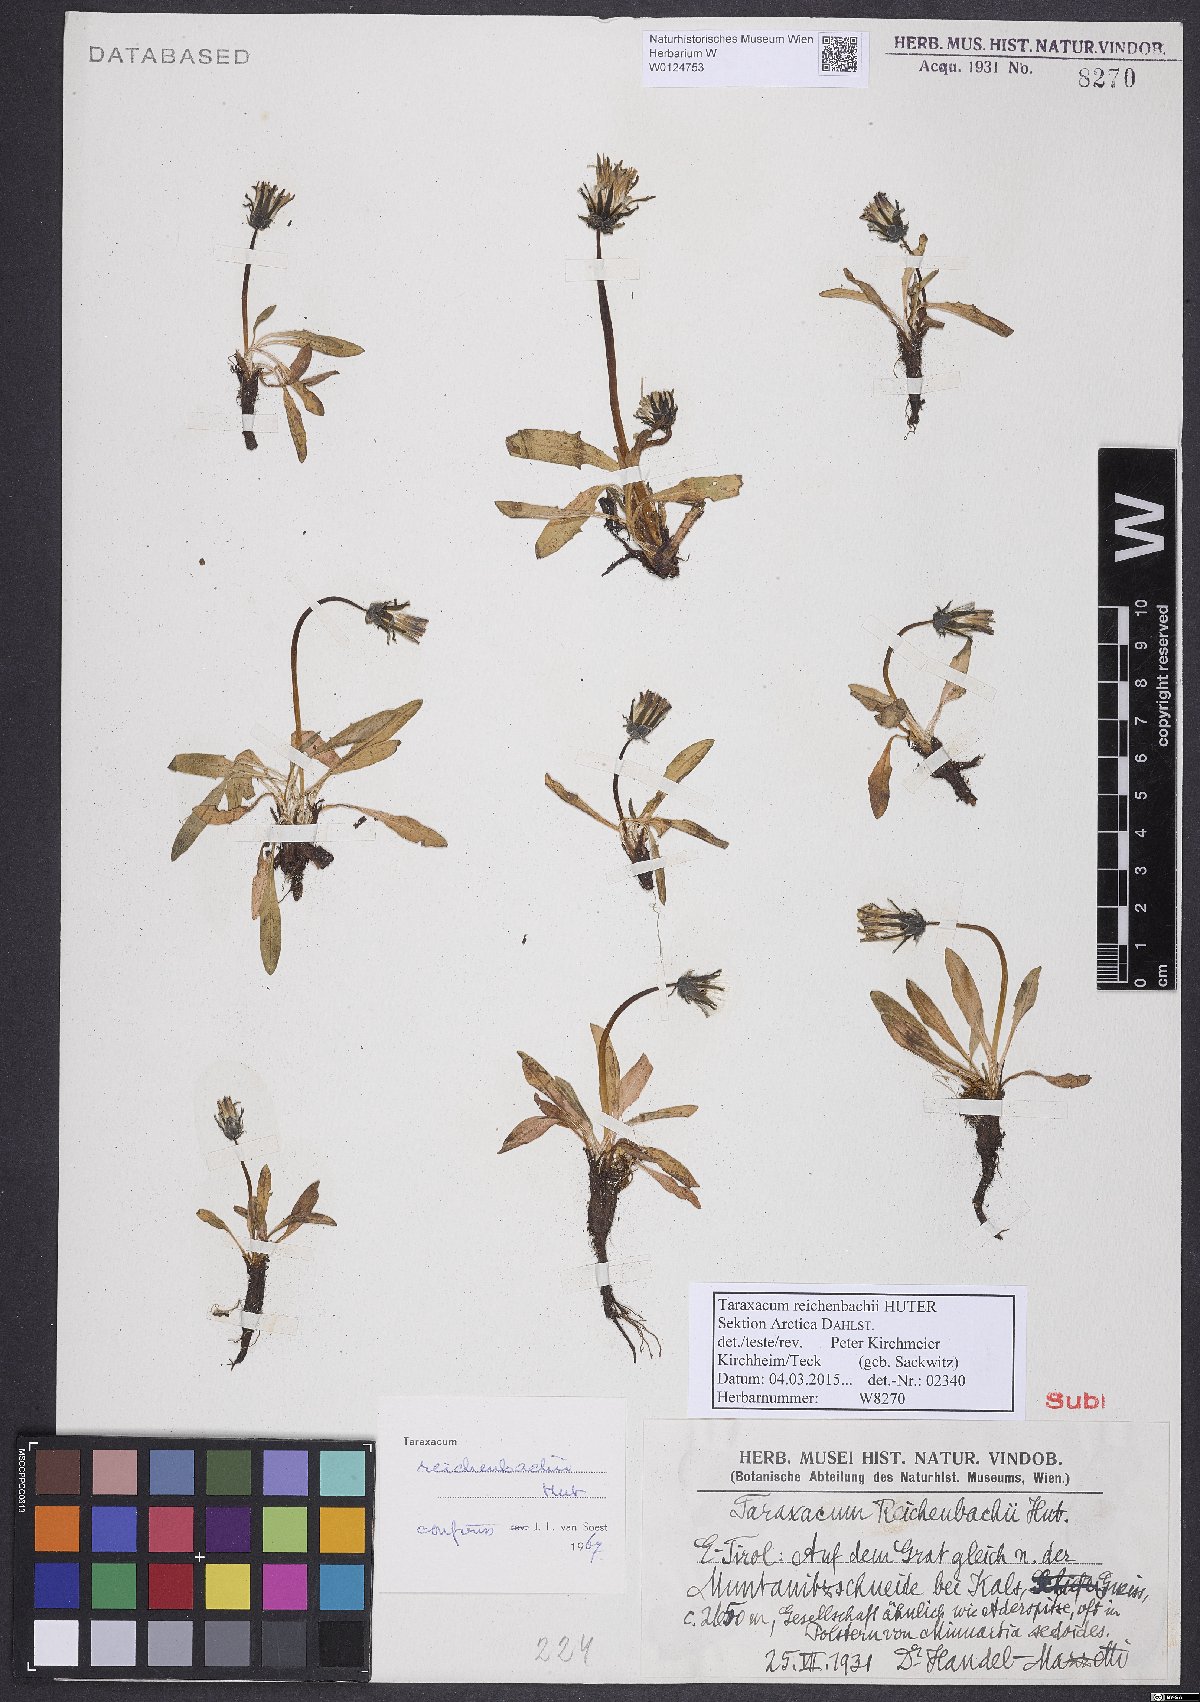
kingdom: Plantae
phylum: Tracheophyta
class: Magnoliopsida
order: Asterales
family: Asteraceae
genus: Taraxacum
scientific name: Taraxacum reichenbachii
